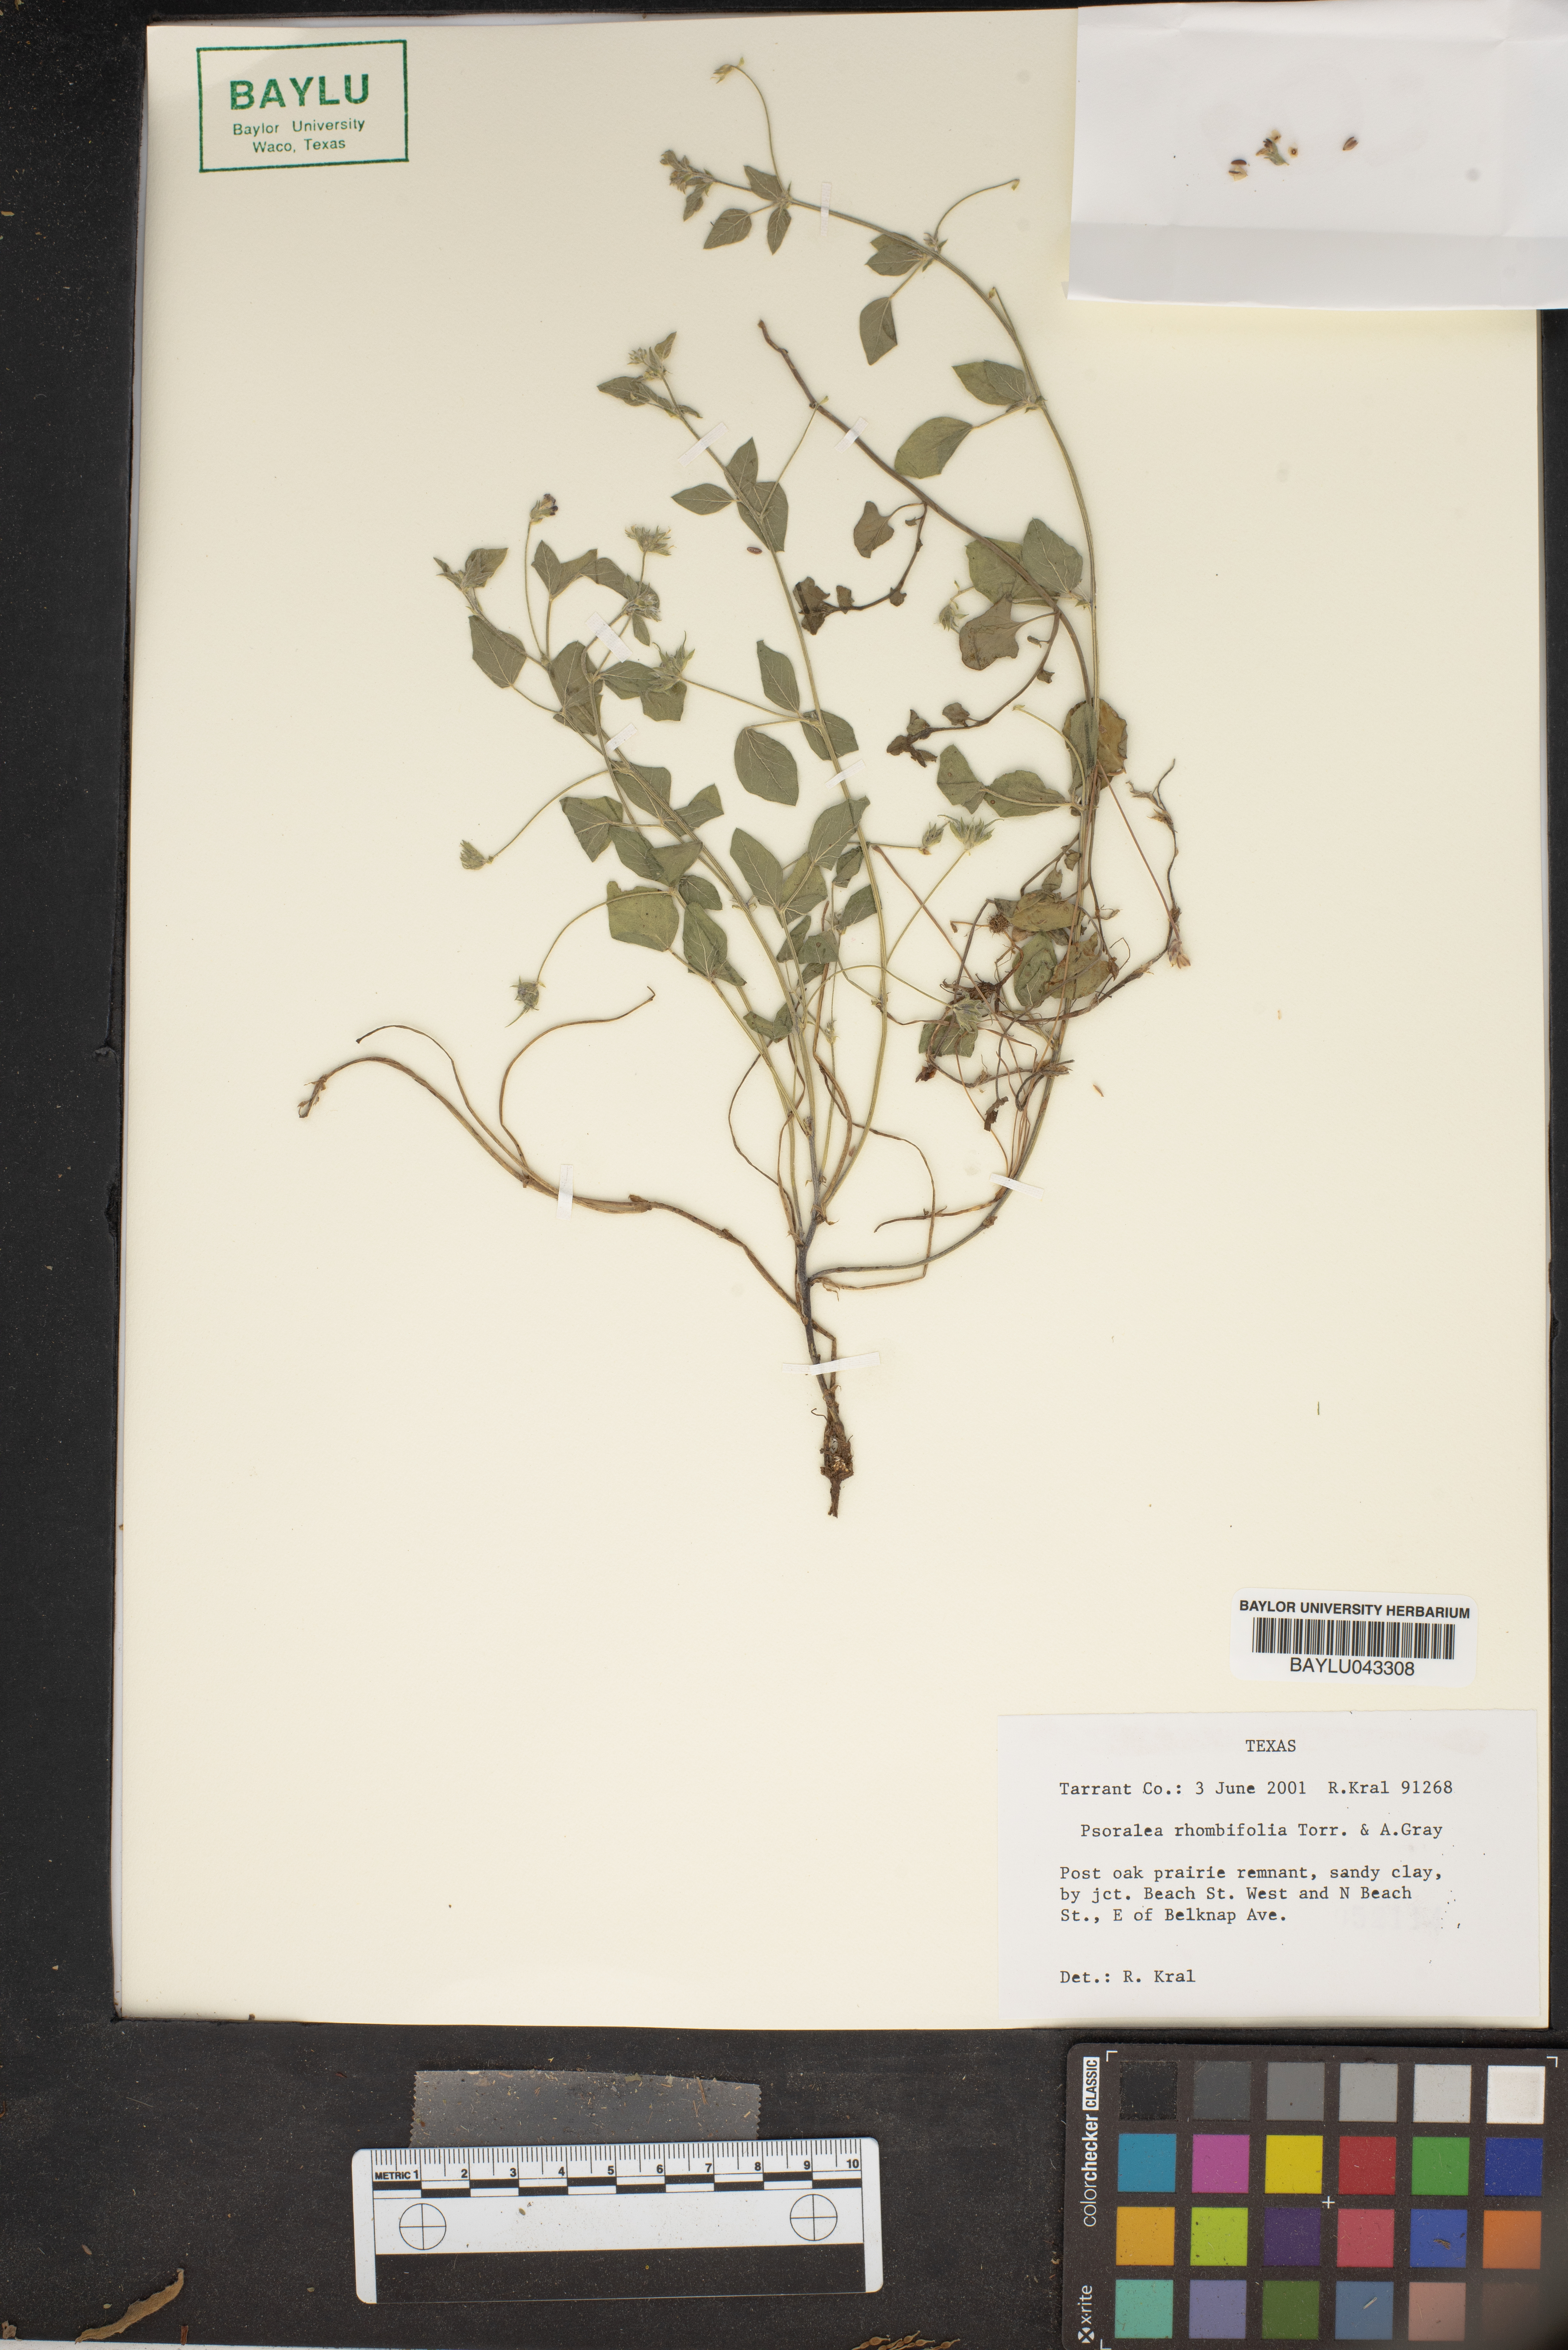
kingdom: Plantae
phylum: Tracheophyta
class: Magnoliopsida
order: Fabales
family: Fabaceae
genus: Pediomelum
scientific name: Pediomelum rhombifolium
